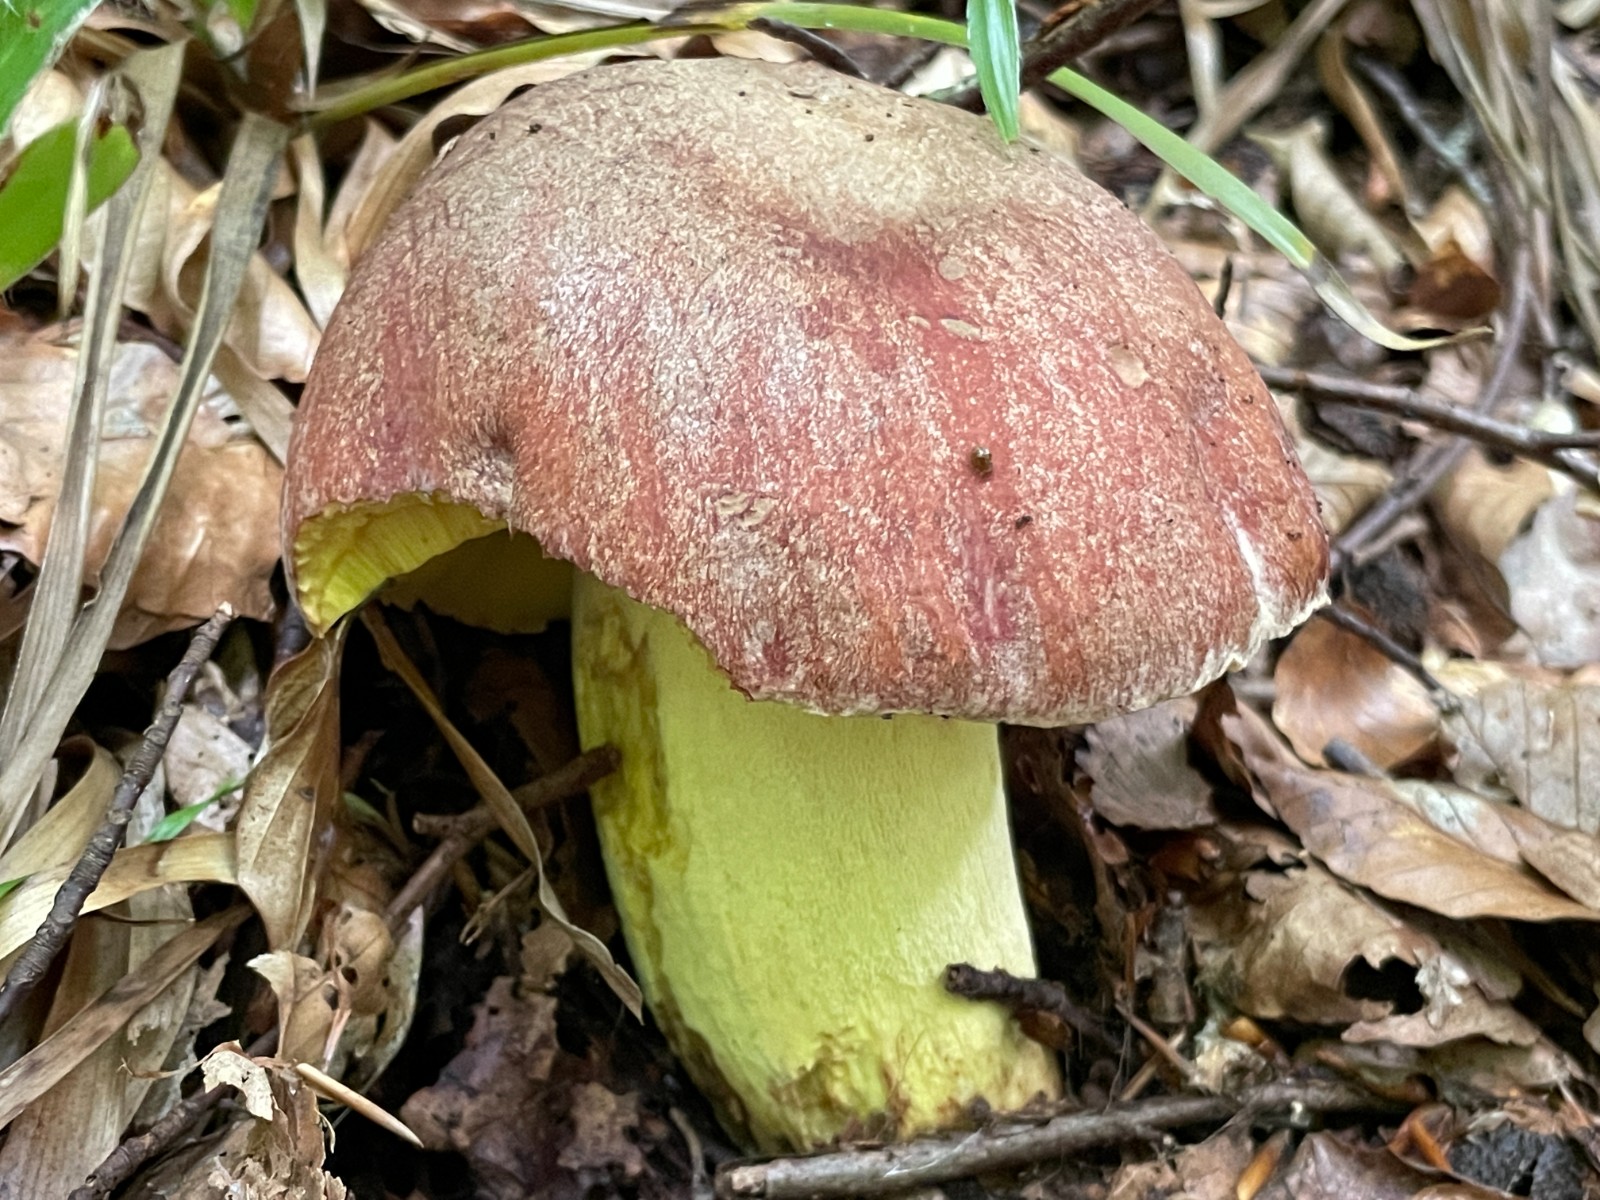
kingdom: Fungi
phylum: Basidiomycota
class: Agaricomycetes
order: Boletales
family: Boletaceae
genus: Butyriboletus
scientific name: Butyriboletus appendiculatus
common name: tenstokket rørhat
